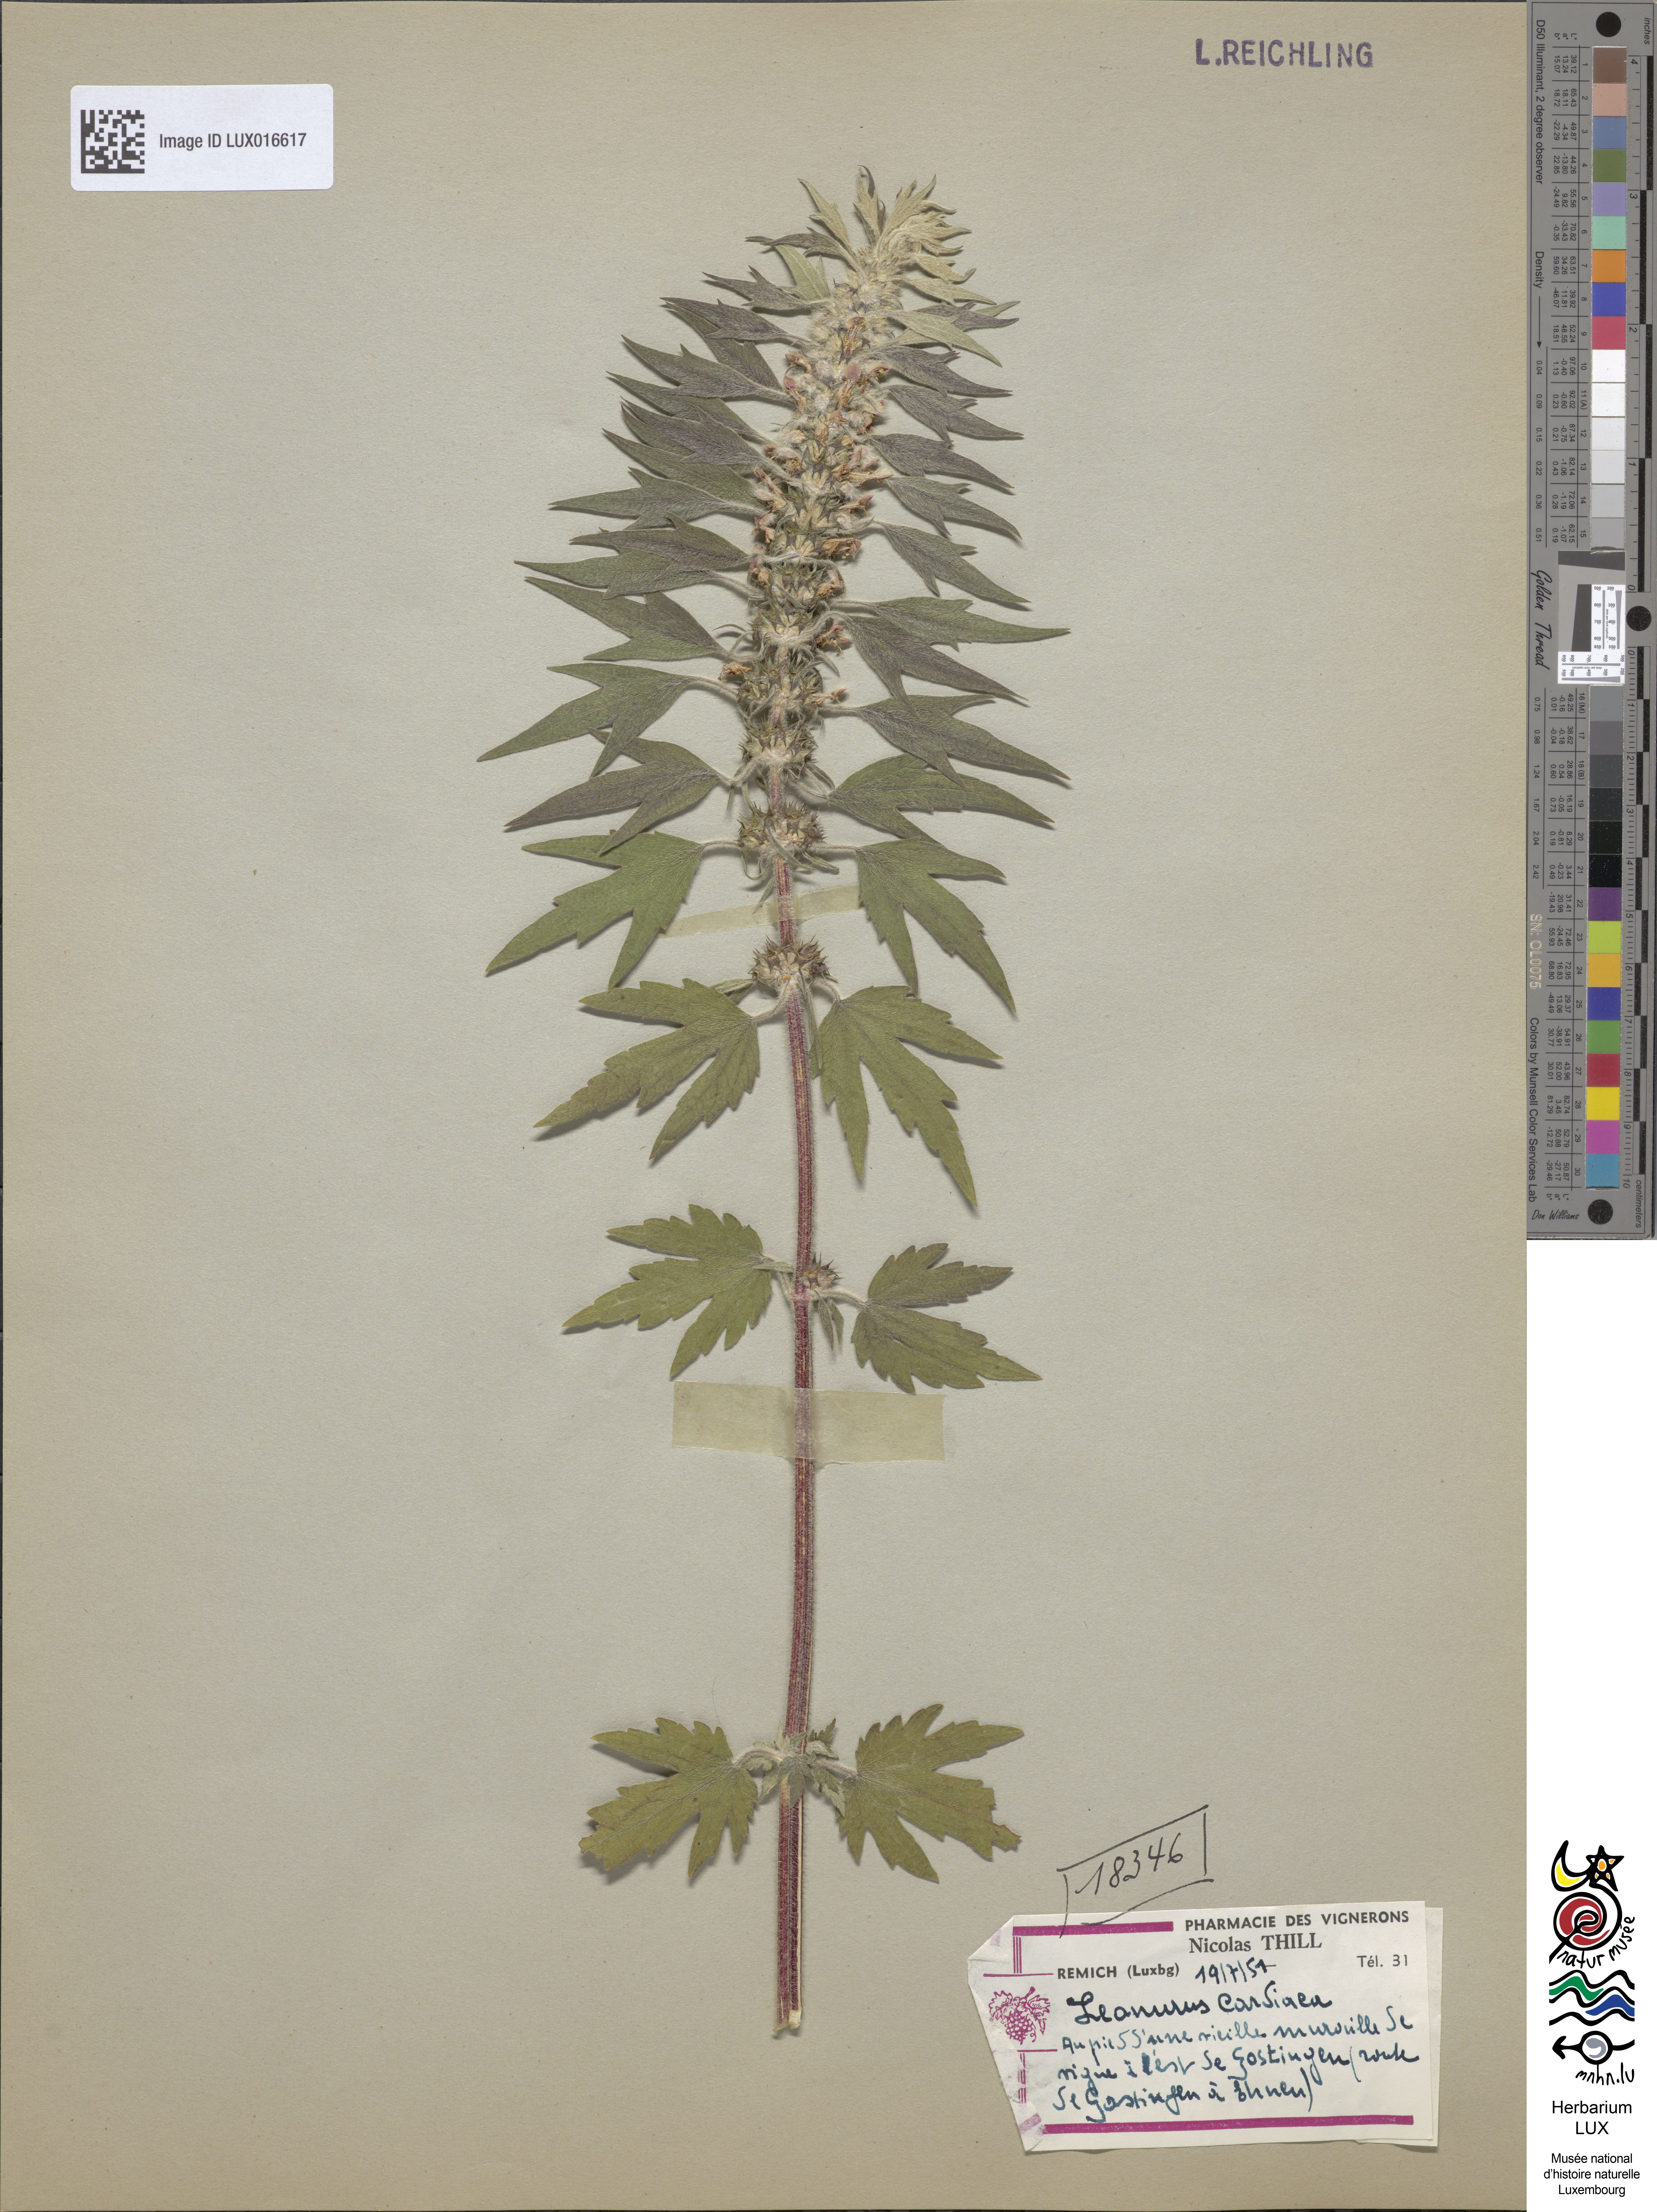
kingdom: Plantae
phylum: Tracheophyta
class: Magnoliopsida
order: Lamiales
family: Lamiaceae
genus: Leonurus
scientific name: Leonurus cardiaca
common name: Motherwort
